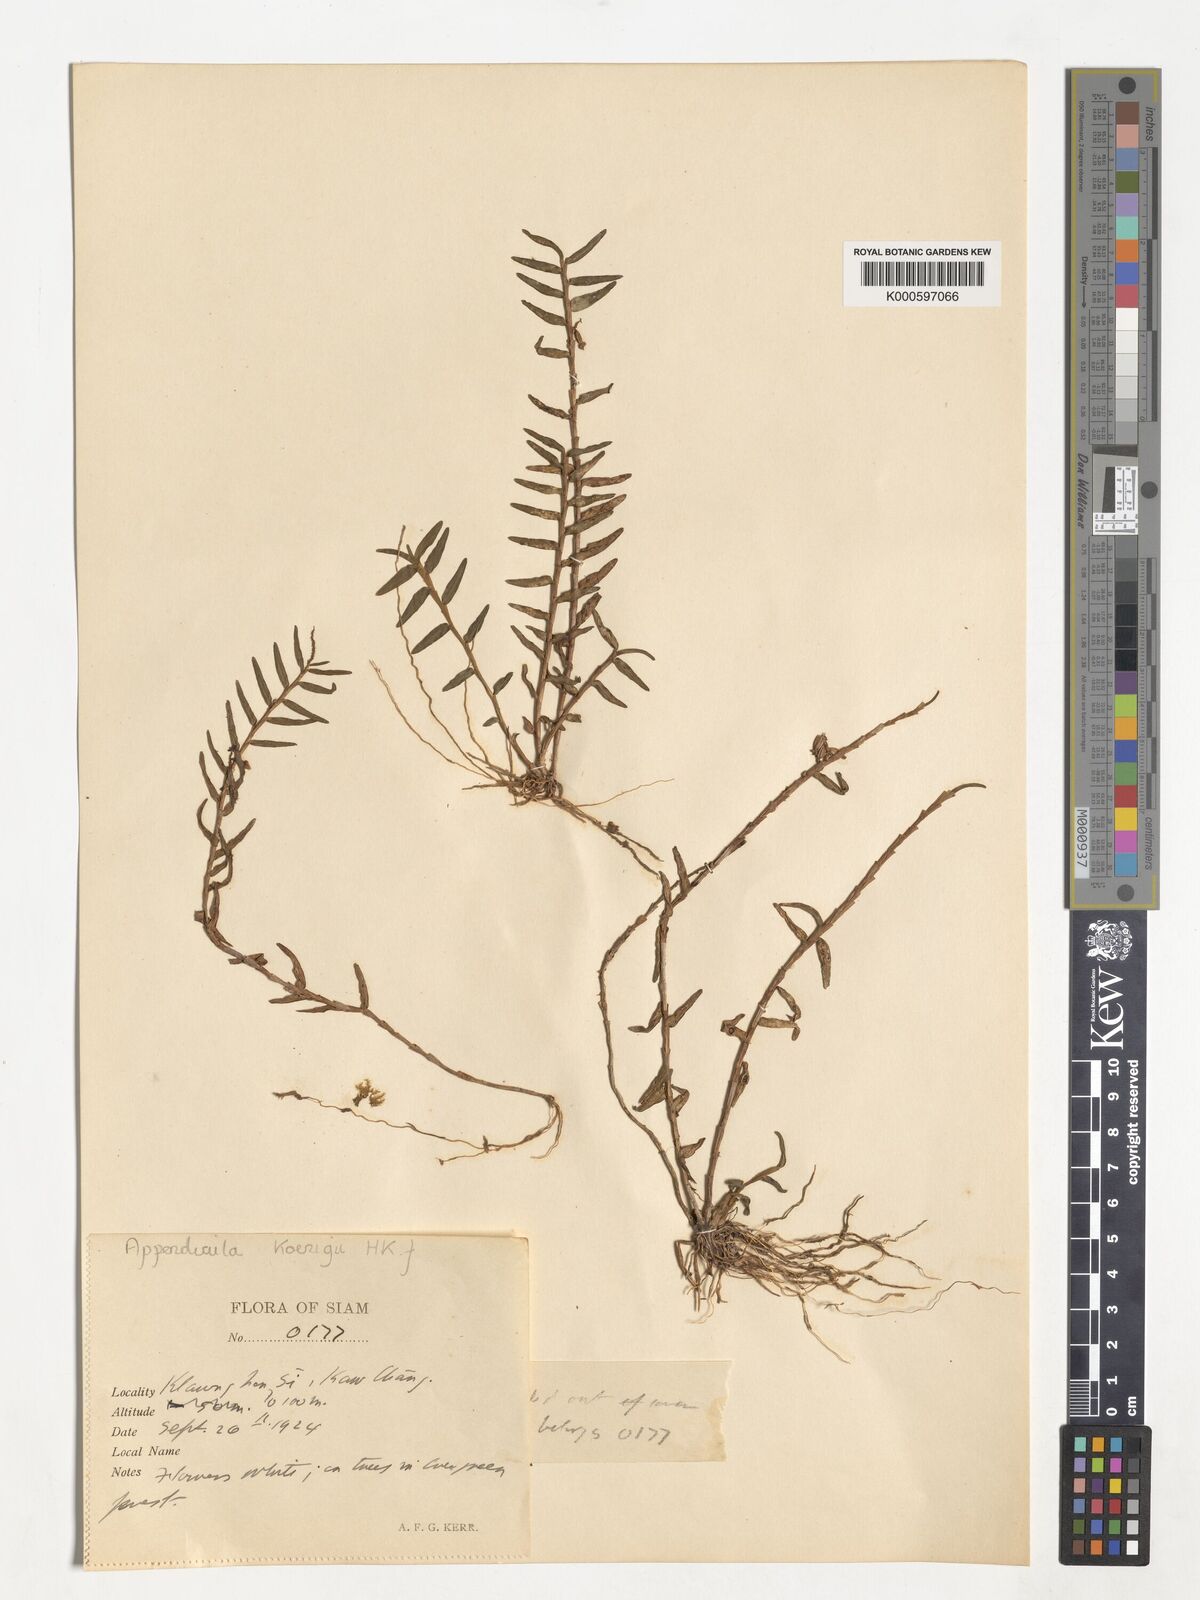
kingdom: Plantae
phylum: Tracheophyta
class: Liliopsida
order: Asparagales
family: Orchidaceae
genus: Appendicula
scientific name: Appendicula
